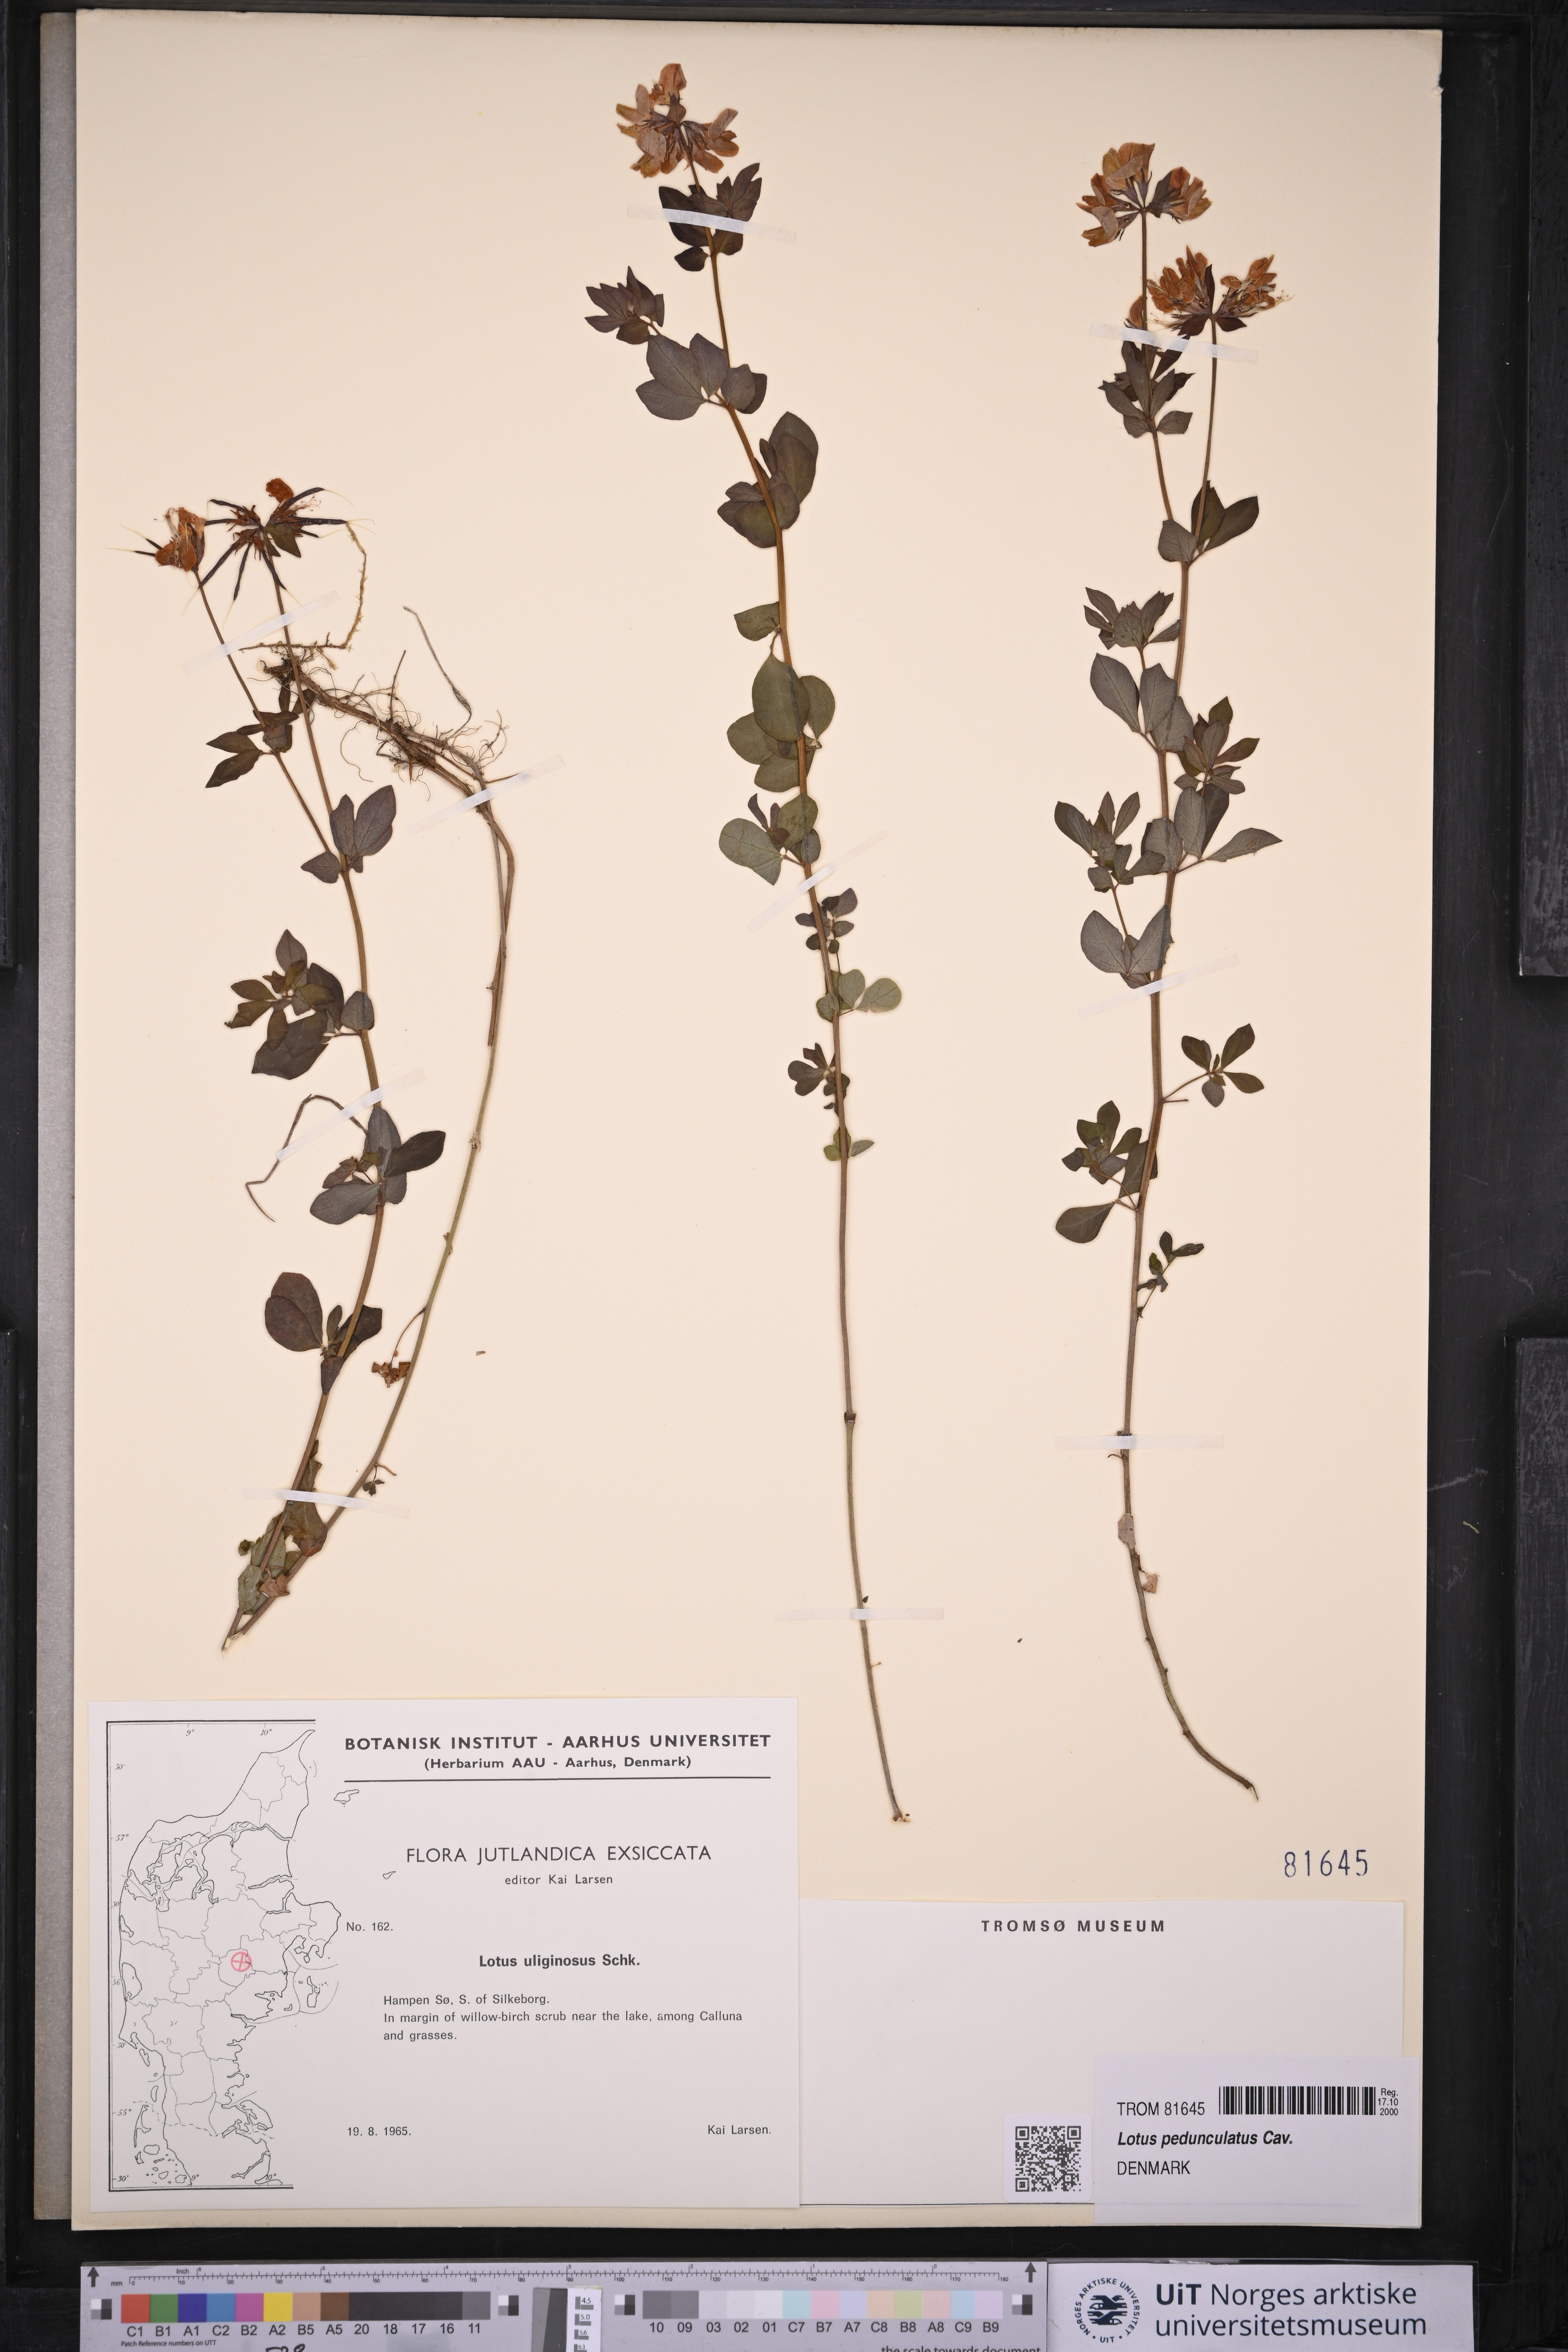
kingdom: Plantae
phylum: Tracheophyta
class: Magnoliopsida
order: Fabales
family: Fabaceae
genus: Lotus
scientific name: Lotus pedunculatus
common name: Greater birdsfoot-trefoil
